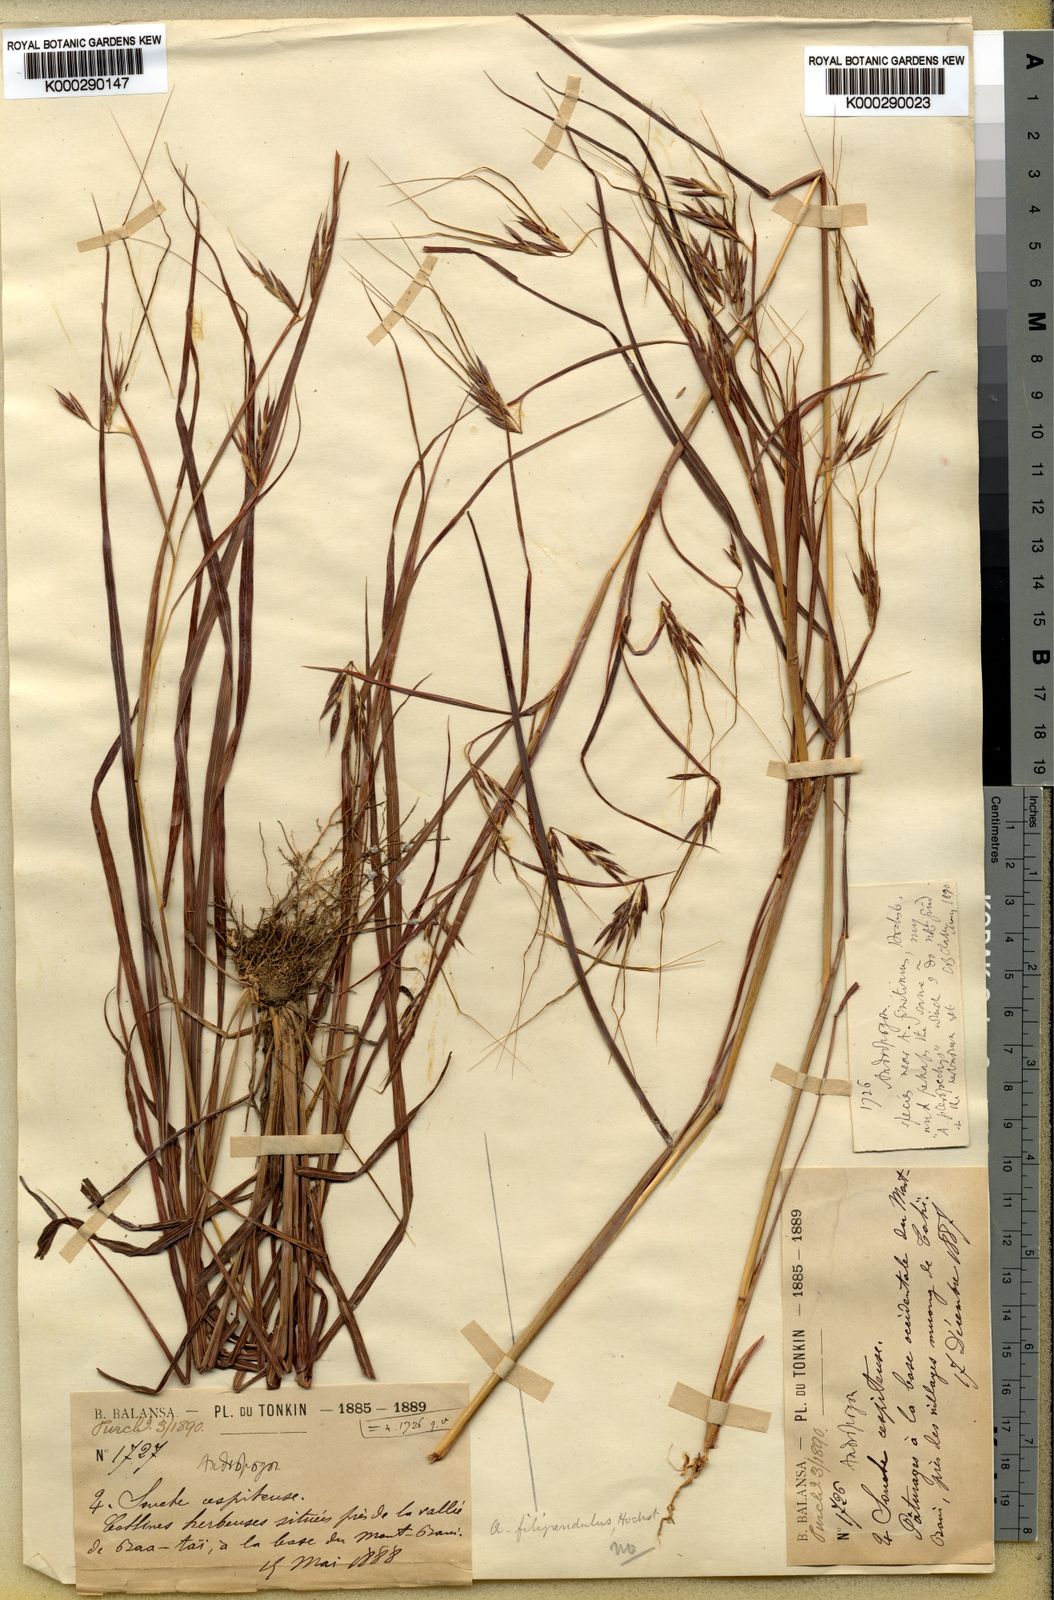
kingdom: Plantae
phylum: Tracheophyta
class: Liliopsida
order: Poales
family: Poaceae
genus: Hyparrhenia
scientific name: Hyparrhenia familiaris
